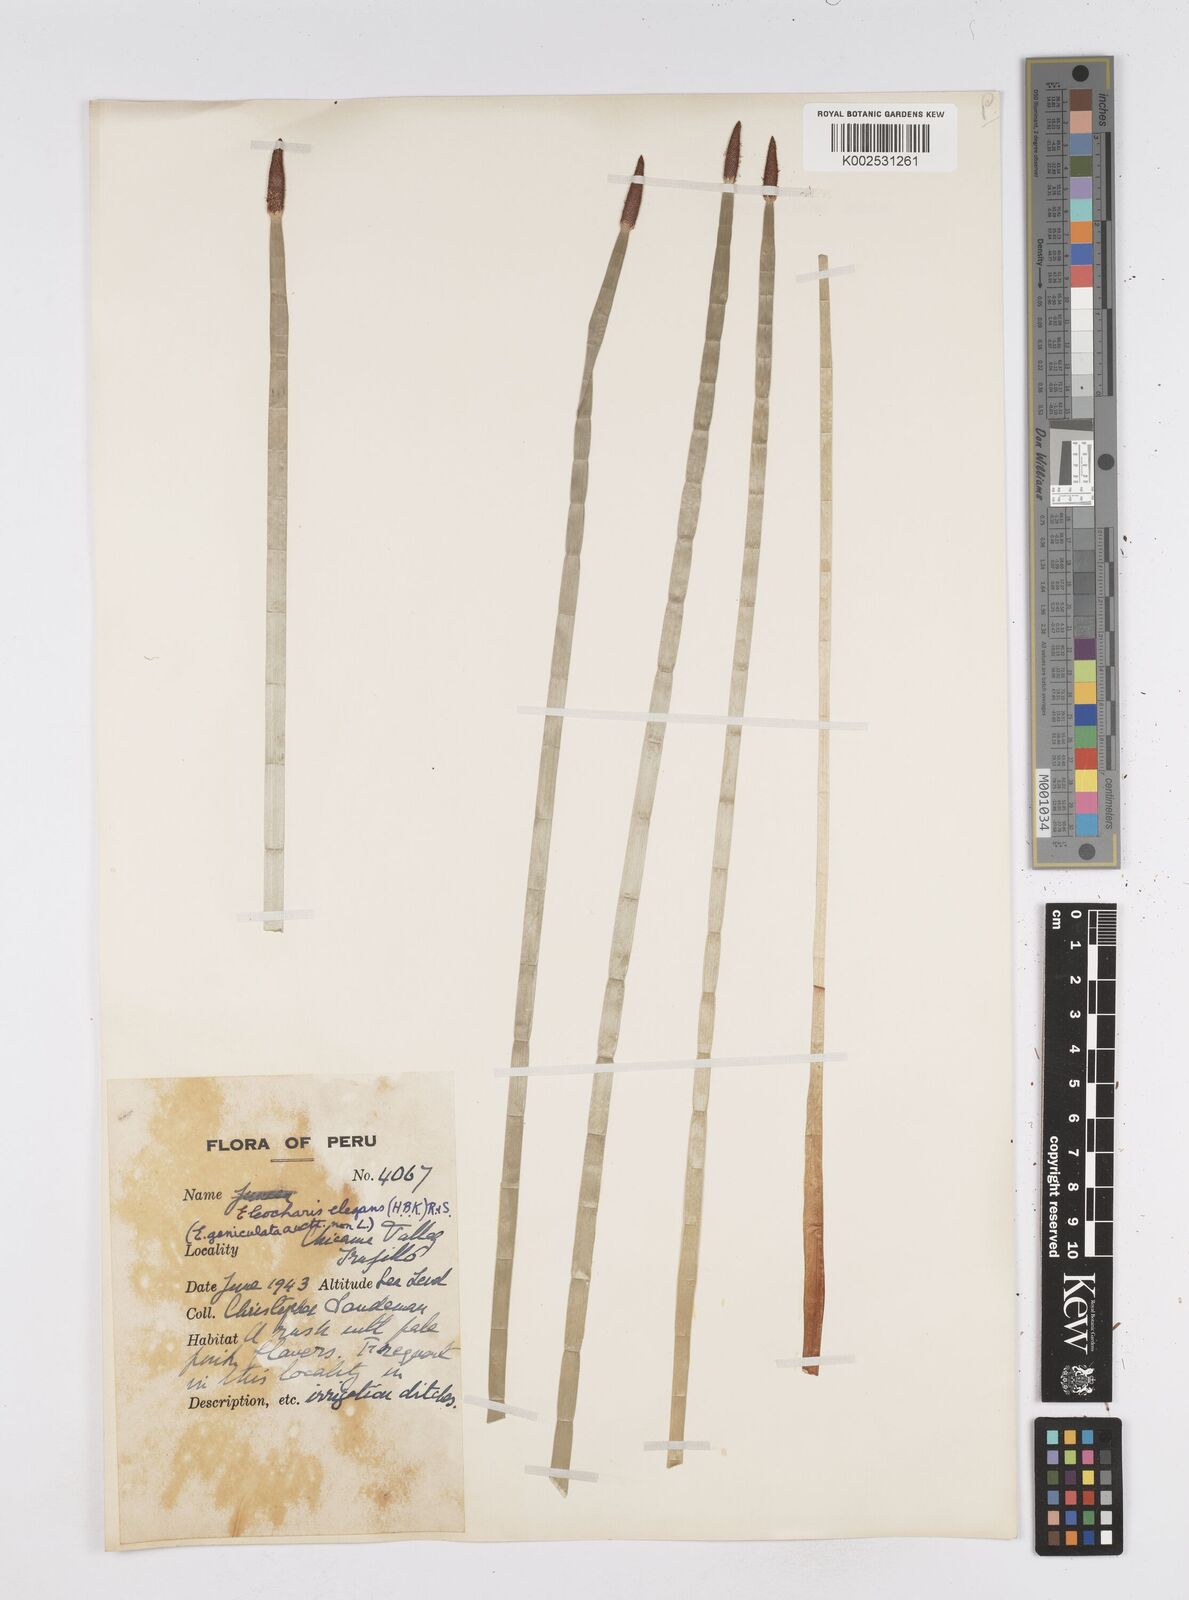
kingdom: Plantae
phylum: Tracheophyta
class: Liliopsida
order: Poales
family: Cyperaceae
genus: Eleocharis
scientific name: Eleocharis elegans
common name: Elegant spike-rush
